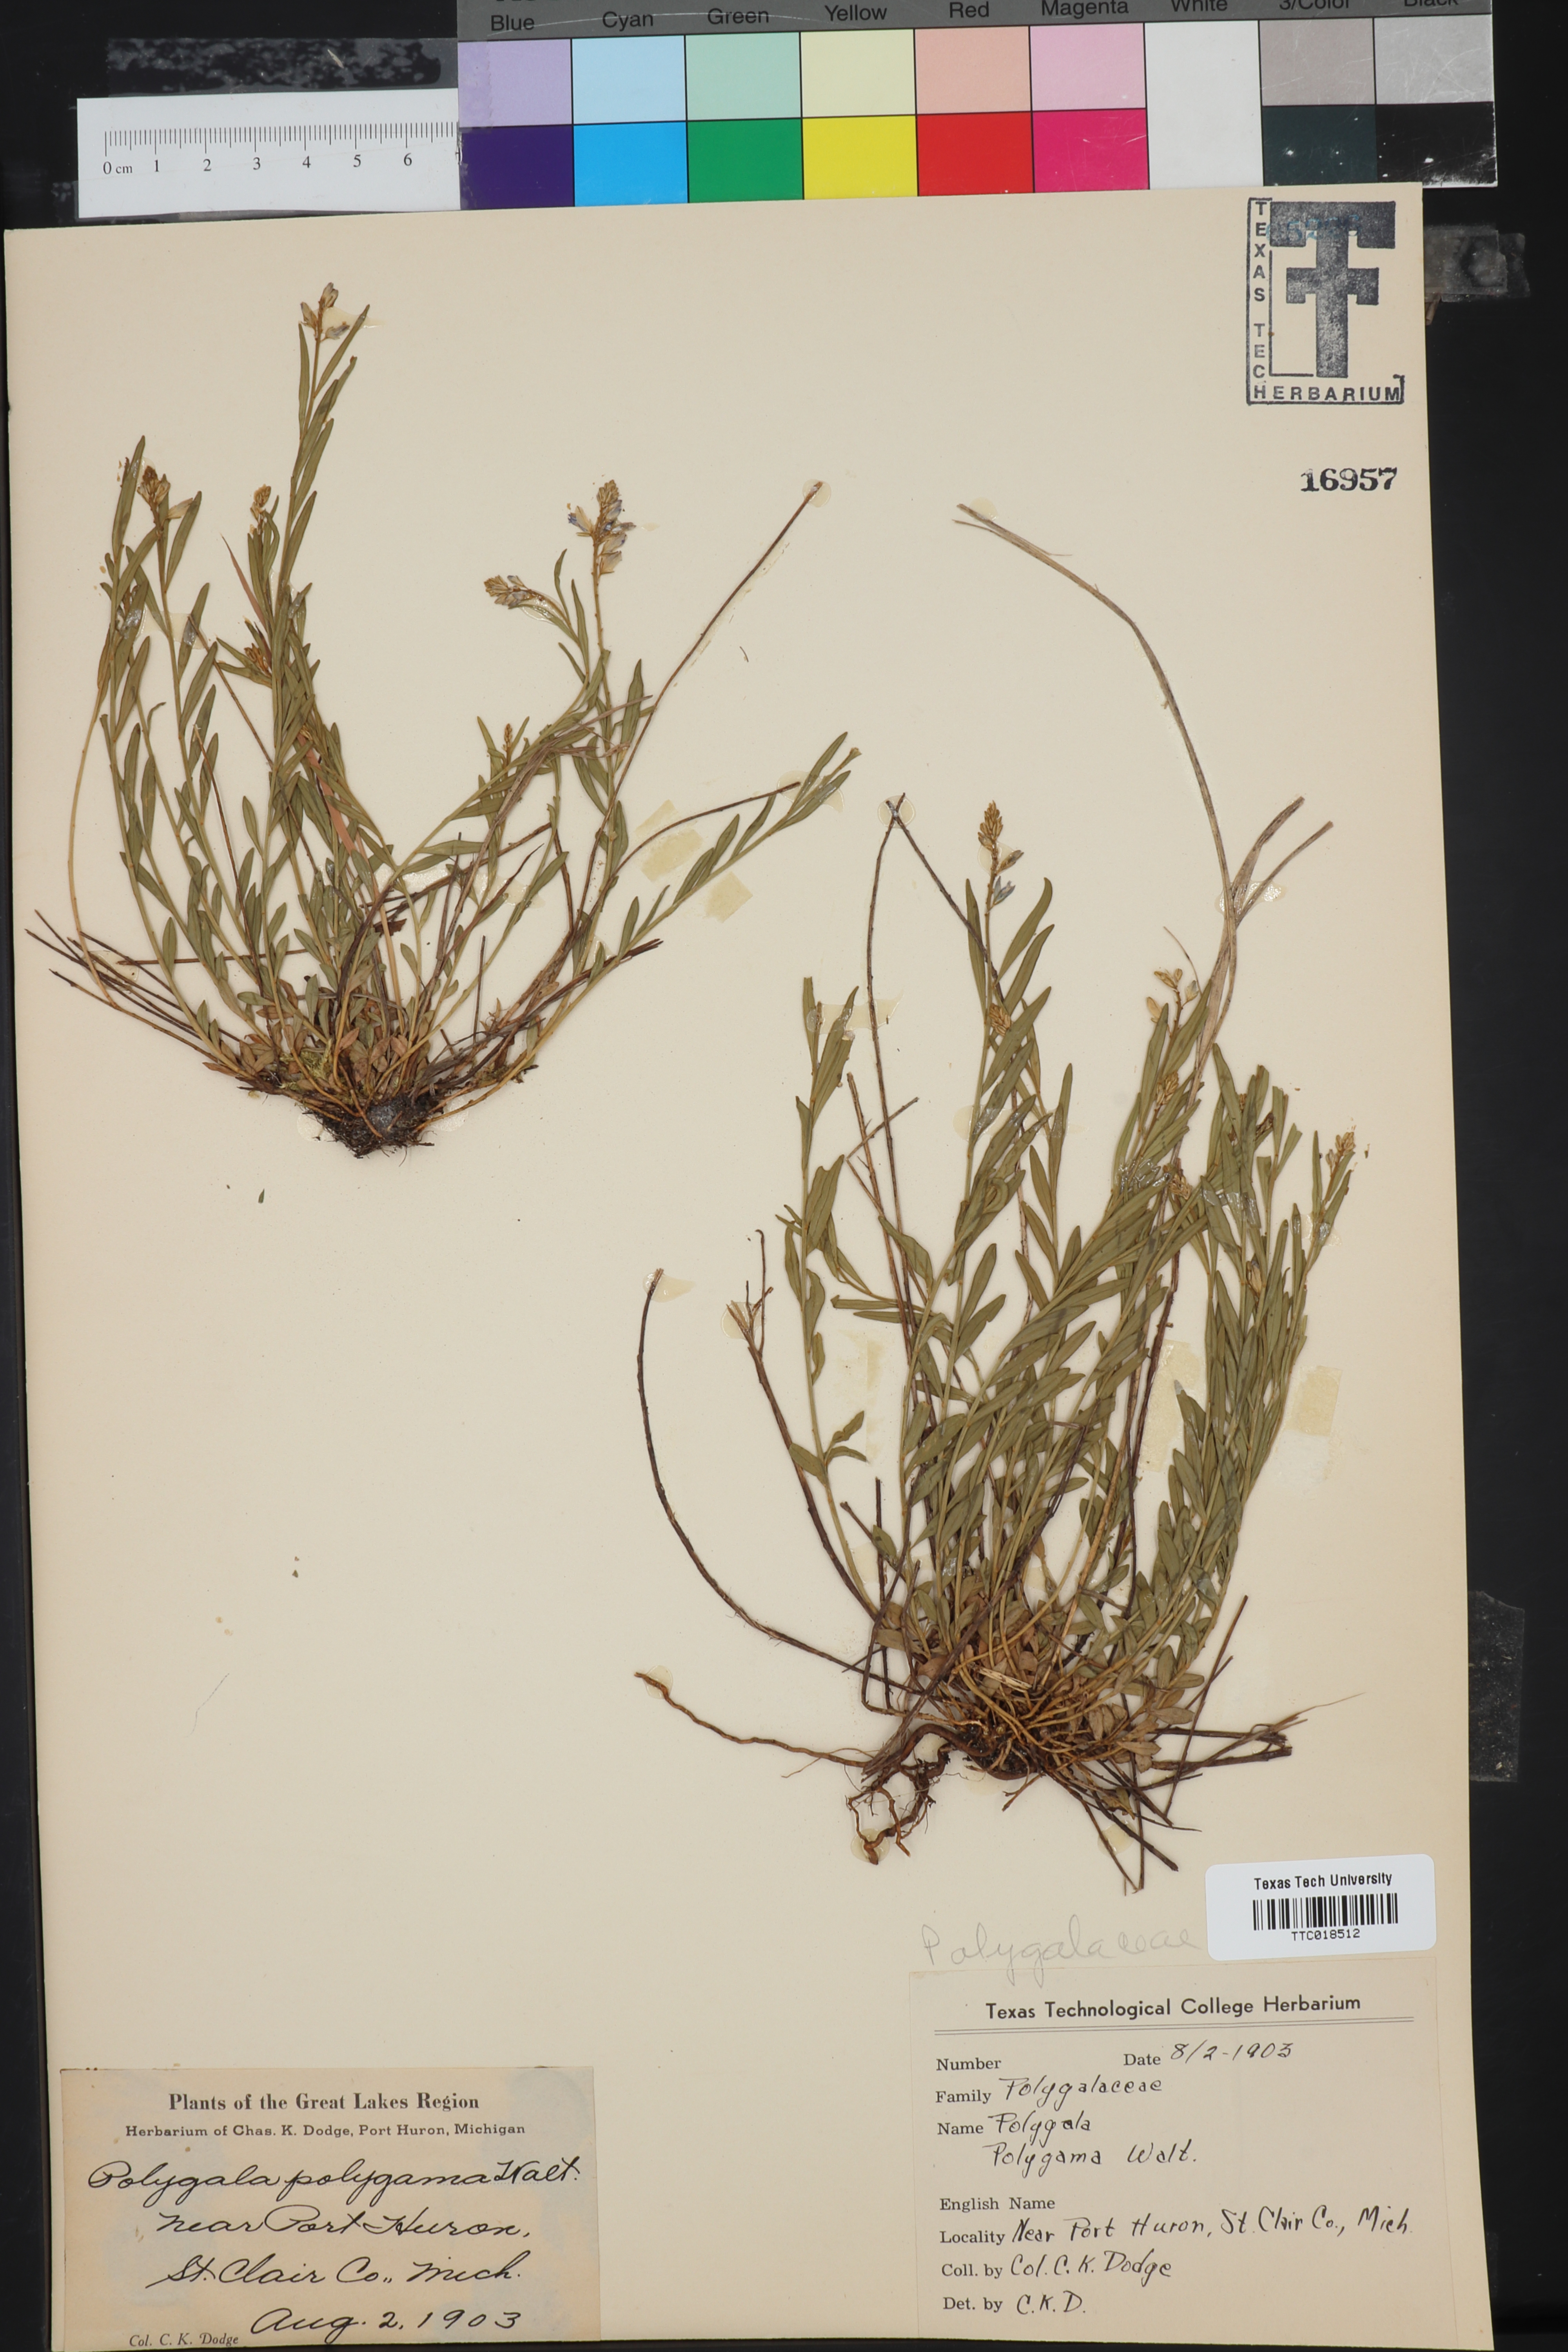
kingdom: Plantae
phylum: Tracheophyta
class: Magnoliopsida
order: Fabales
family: Polygalaceae
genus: Polygala
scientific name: Polygala polygama
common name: Bitter milkwort
